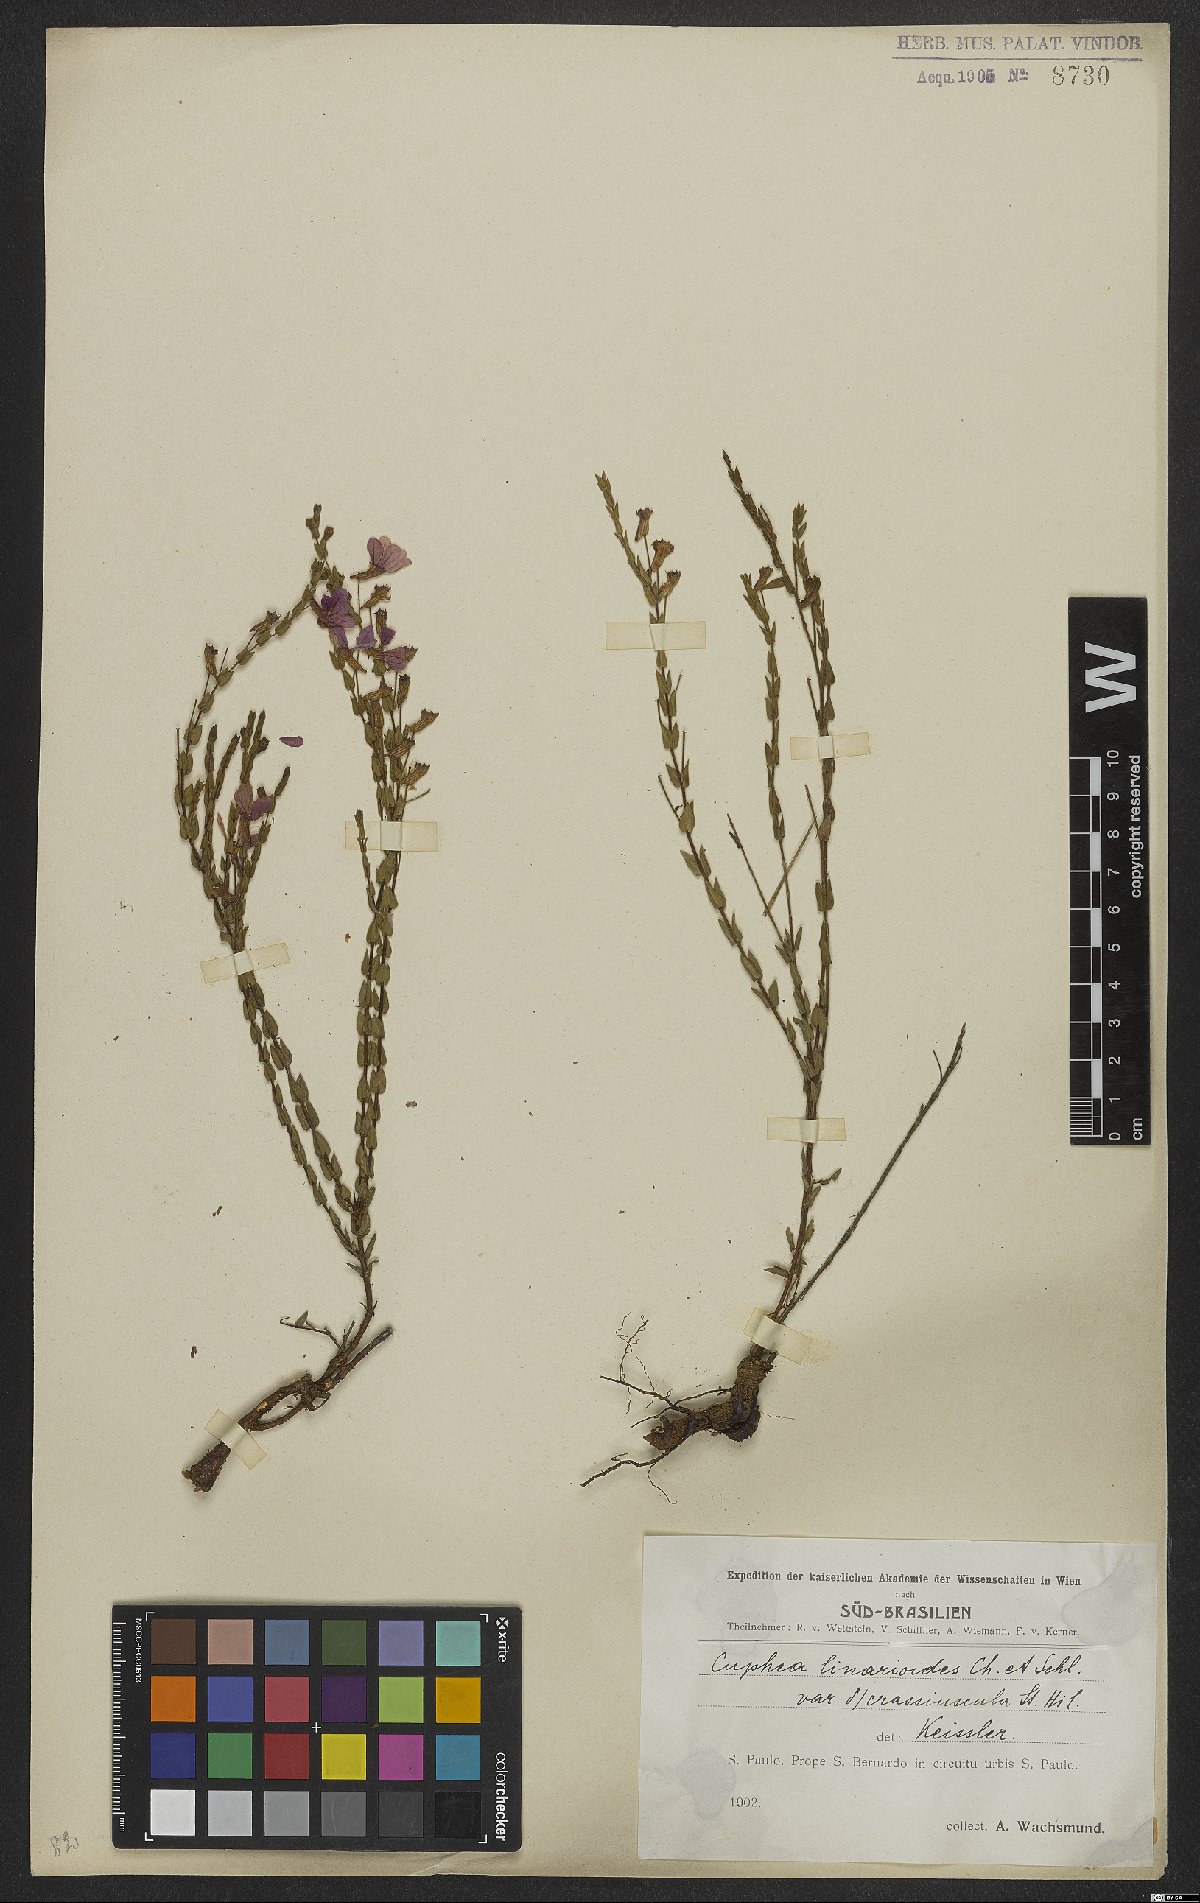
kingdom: Plantae
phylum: Tracheophyta
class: Magnoliopsida
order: Myrtales
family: Lythraceae
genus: Cuphea
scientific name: Cuphea linarioides
